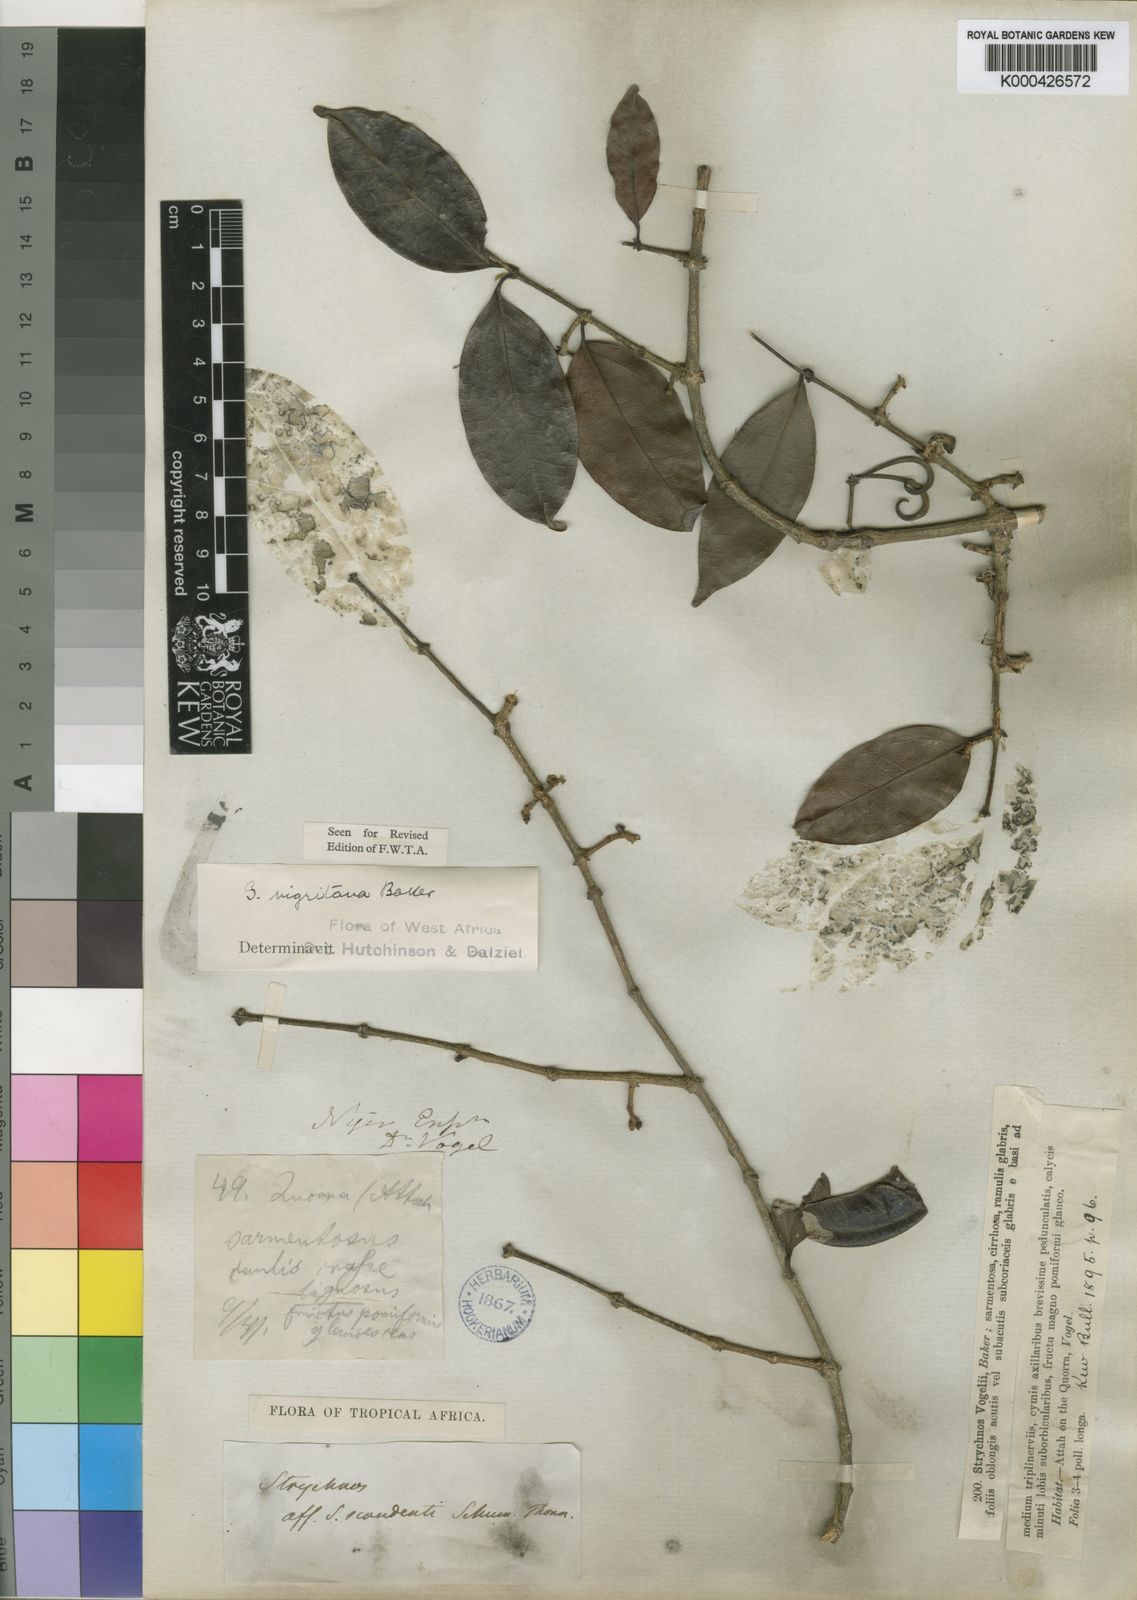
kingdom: Plantae
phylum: Tracheophyta
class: Magnoliopsida
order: Gentianales
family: Loganiaceae
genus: Strychnos
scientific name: Strychnos nigritana
